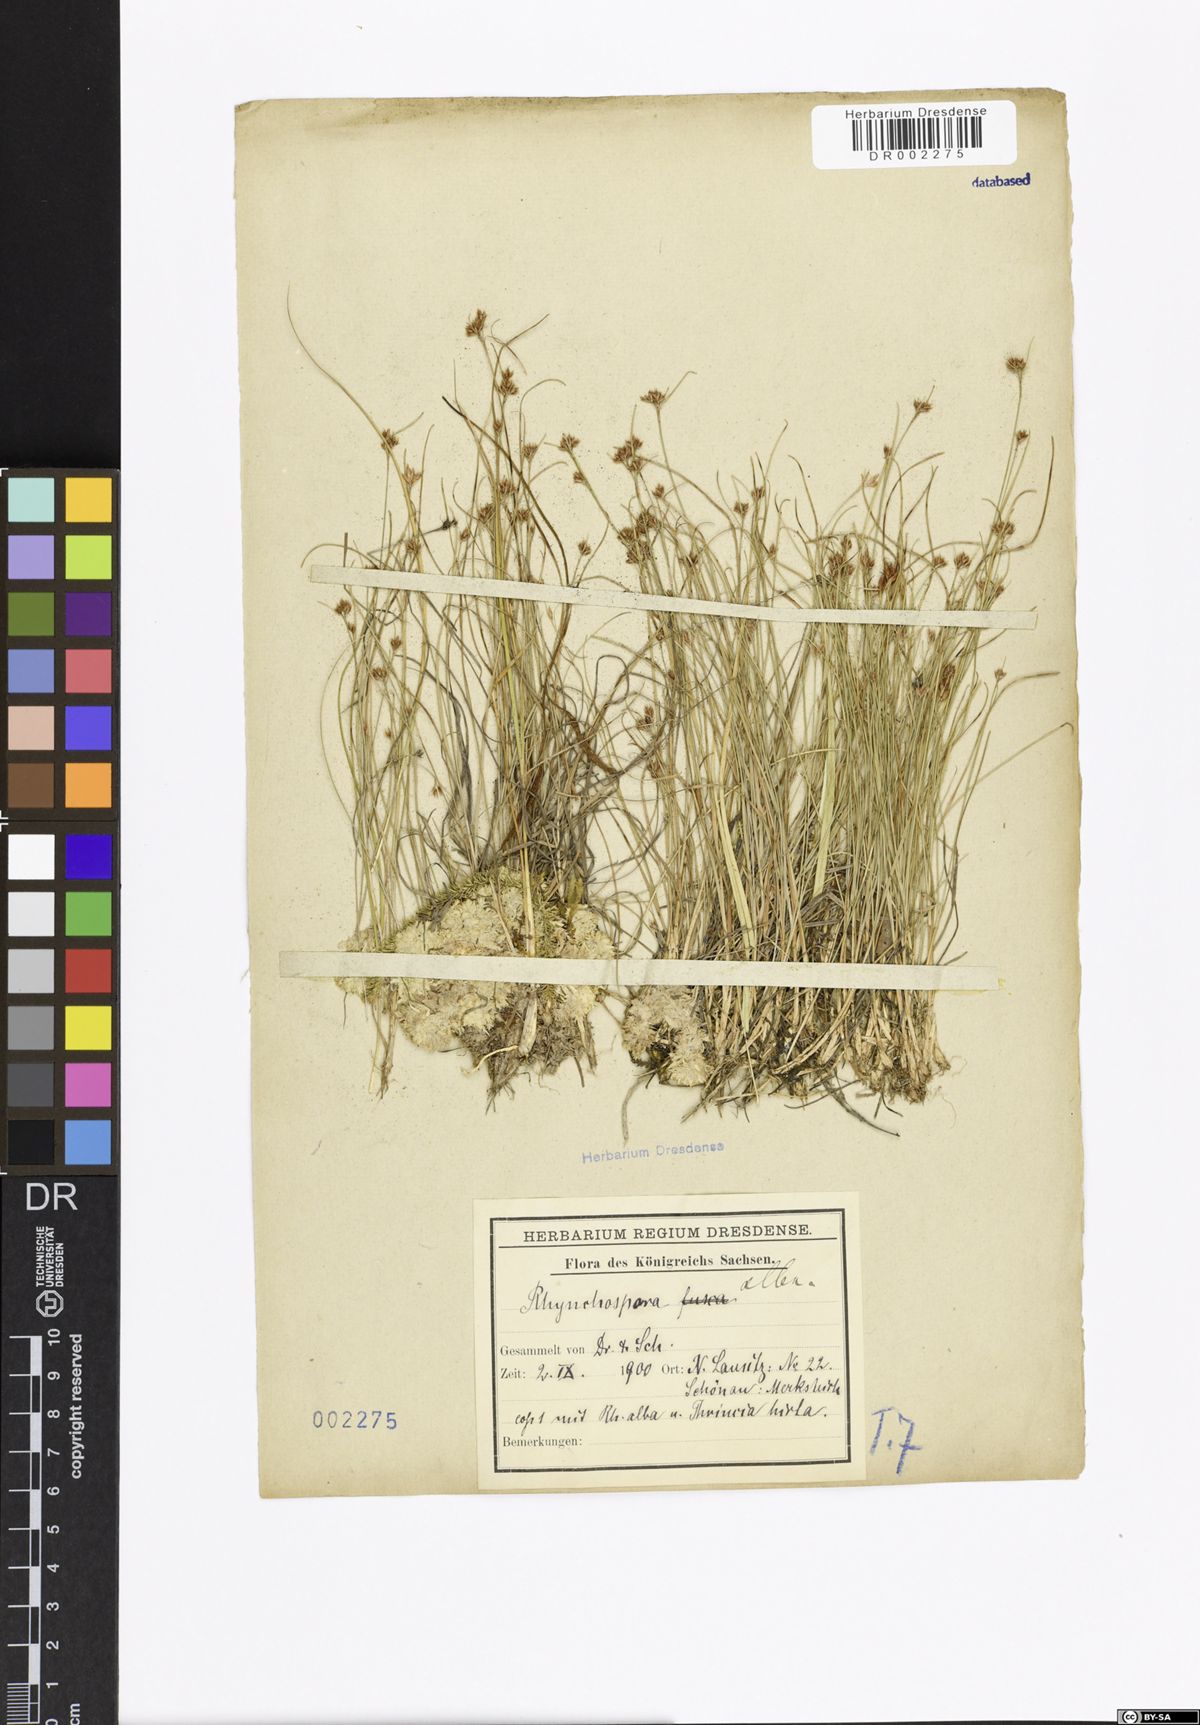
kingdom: Plantae
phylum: Tracheophyta
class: Liliopsida
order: Poales
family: Cyperaceae
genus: Rhynchospora
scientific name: Rhynchospora alba
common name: White beak-sedge
